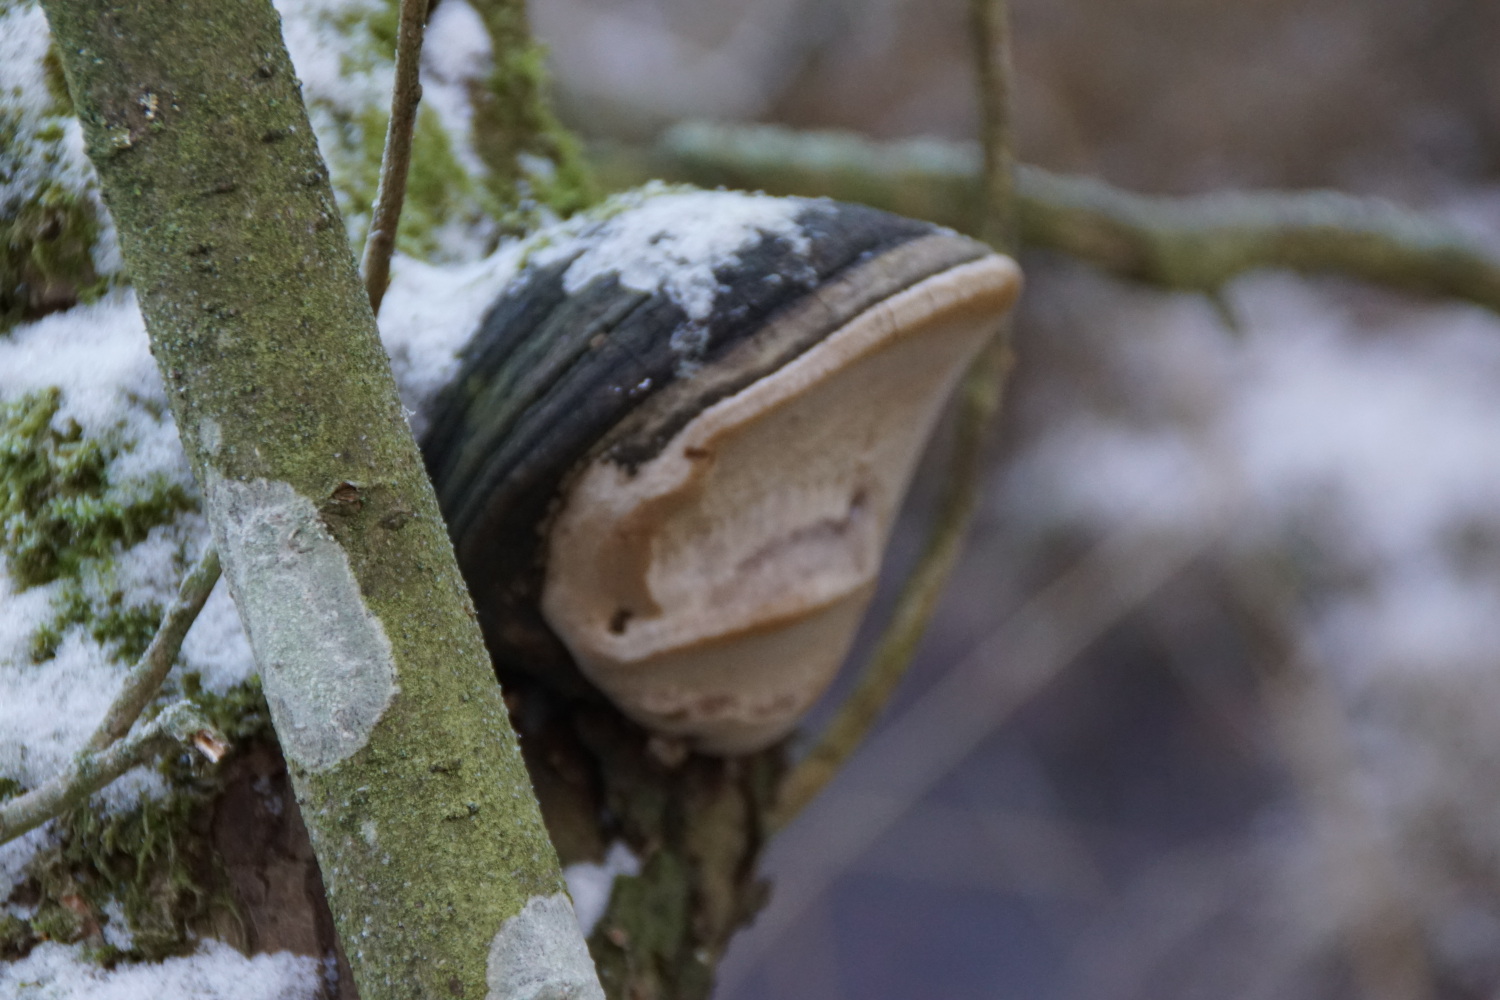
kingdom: Fungi
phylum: Basidiomycota
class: Agaricomycetes
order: Hymenochaetales
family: Hymenochaetaceae
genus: Phellinus
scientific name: Phellinus igniarius
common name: almindelig ildporesvamp
